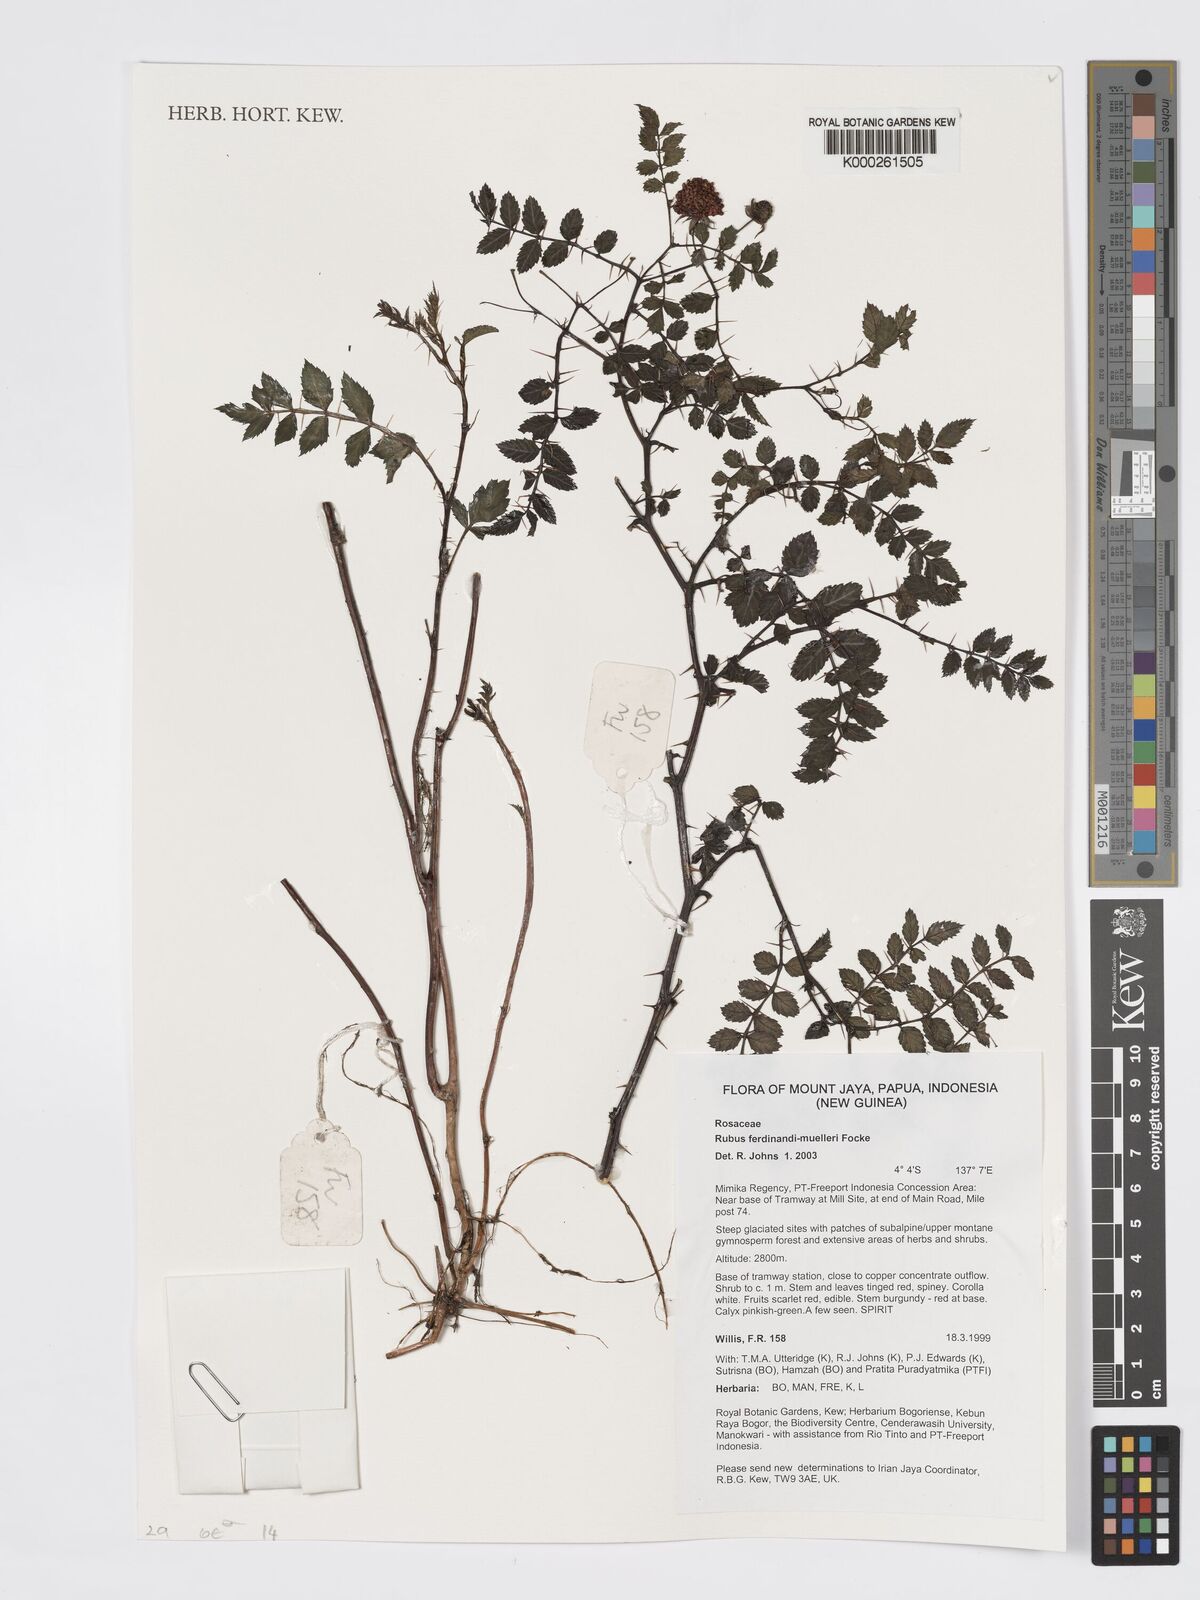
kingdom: Plantae
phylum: Tracheophyta
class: Magnoliopsida
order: Rosales
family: Rosaceae
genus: Rubus
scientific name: Rubus ferdinandimuelleri
